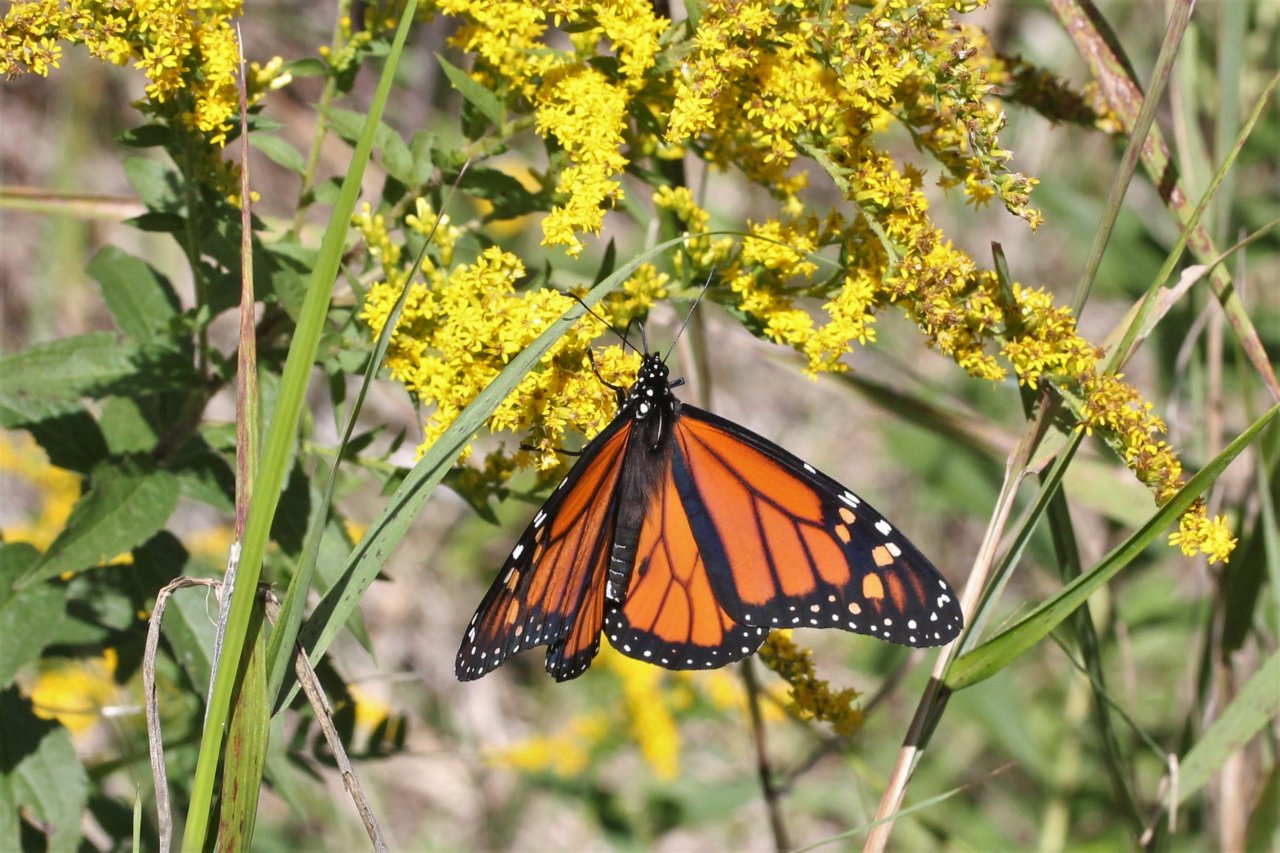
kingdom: Animalia
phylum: Arthropoda
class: Insecta
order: Lepidoptera
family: Nymphalidae
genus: Danaus
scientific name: Danaus plexippus
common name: Monarch
